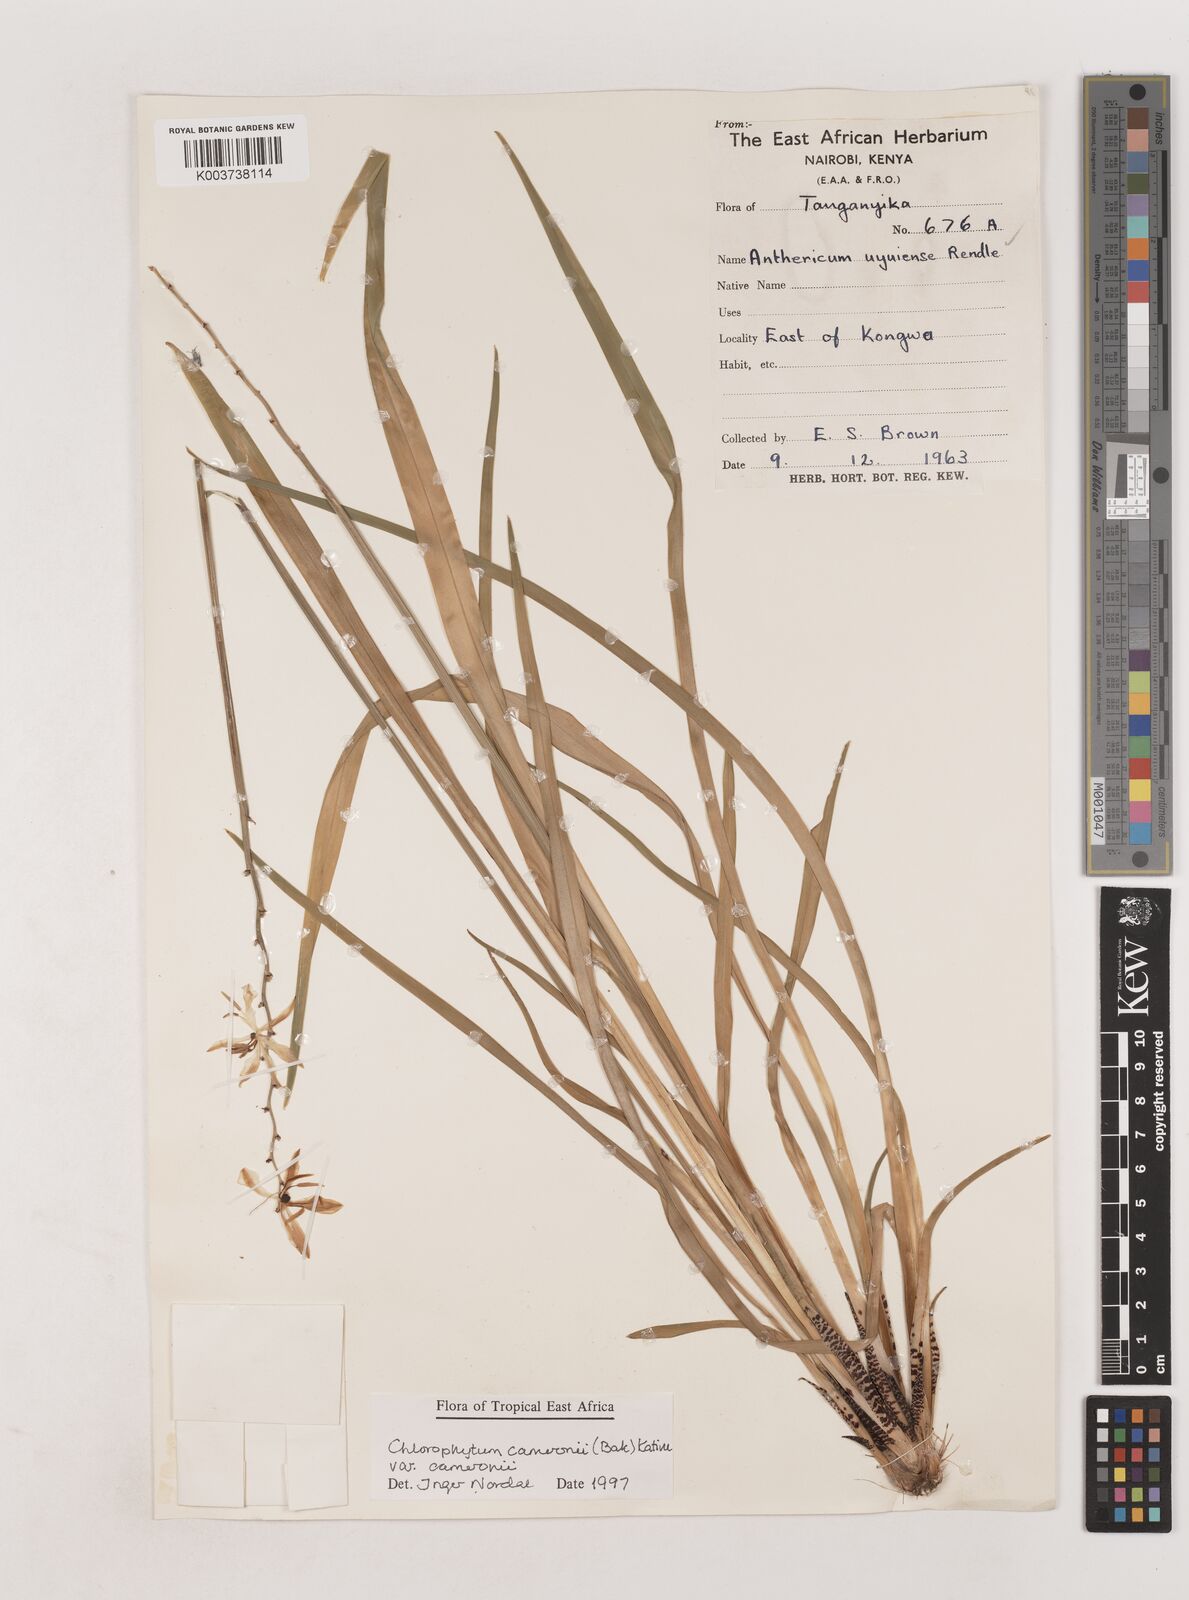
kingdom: Plantae
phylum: Tracheophyta
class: Liliopsida
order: Asparagales
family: Asparagaceae
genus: Chlorophytum
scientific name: Chlorophytum cameronii
